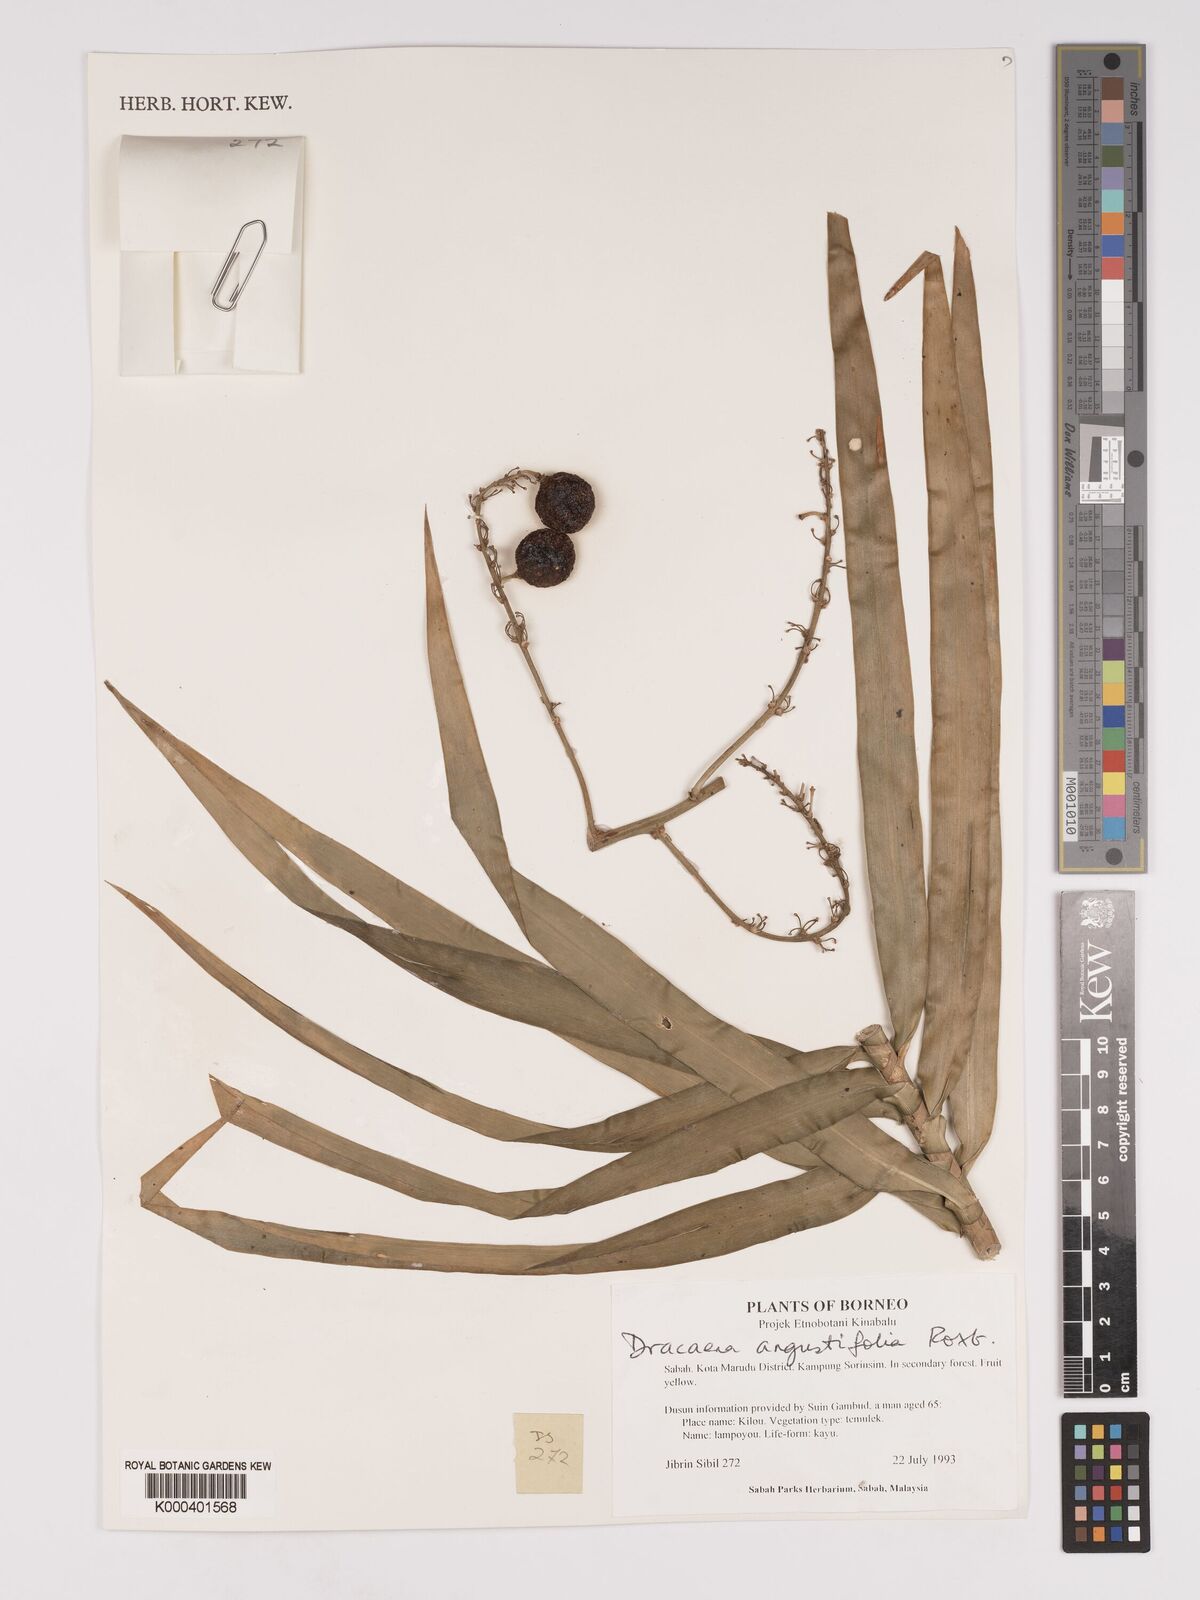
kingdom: Plantae
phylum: Tracheophyta
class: Liliopsida
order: Asparagales
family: Asparagaceae
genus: Dracaena
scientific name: Dracaena angustifolia
